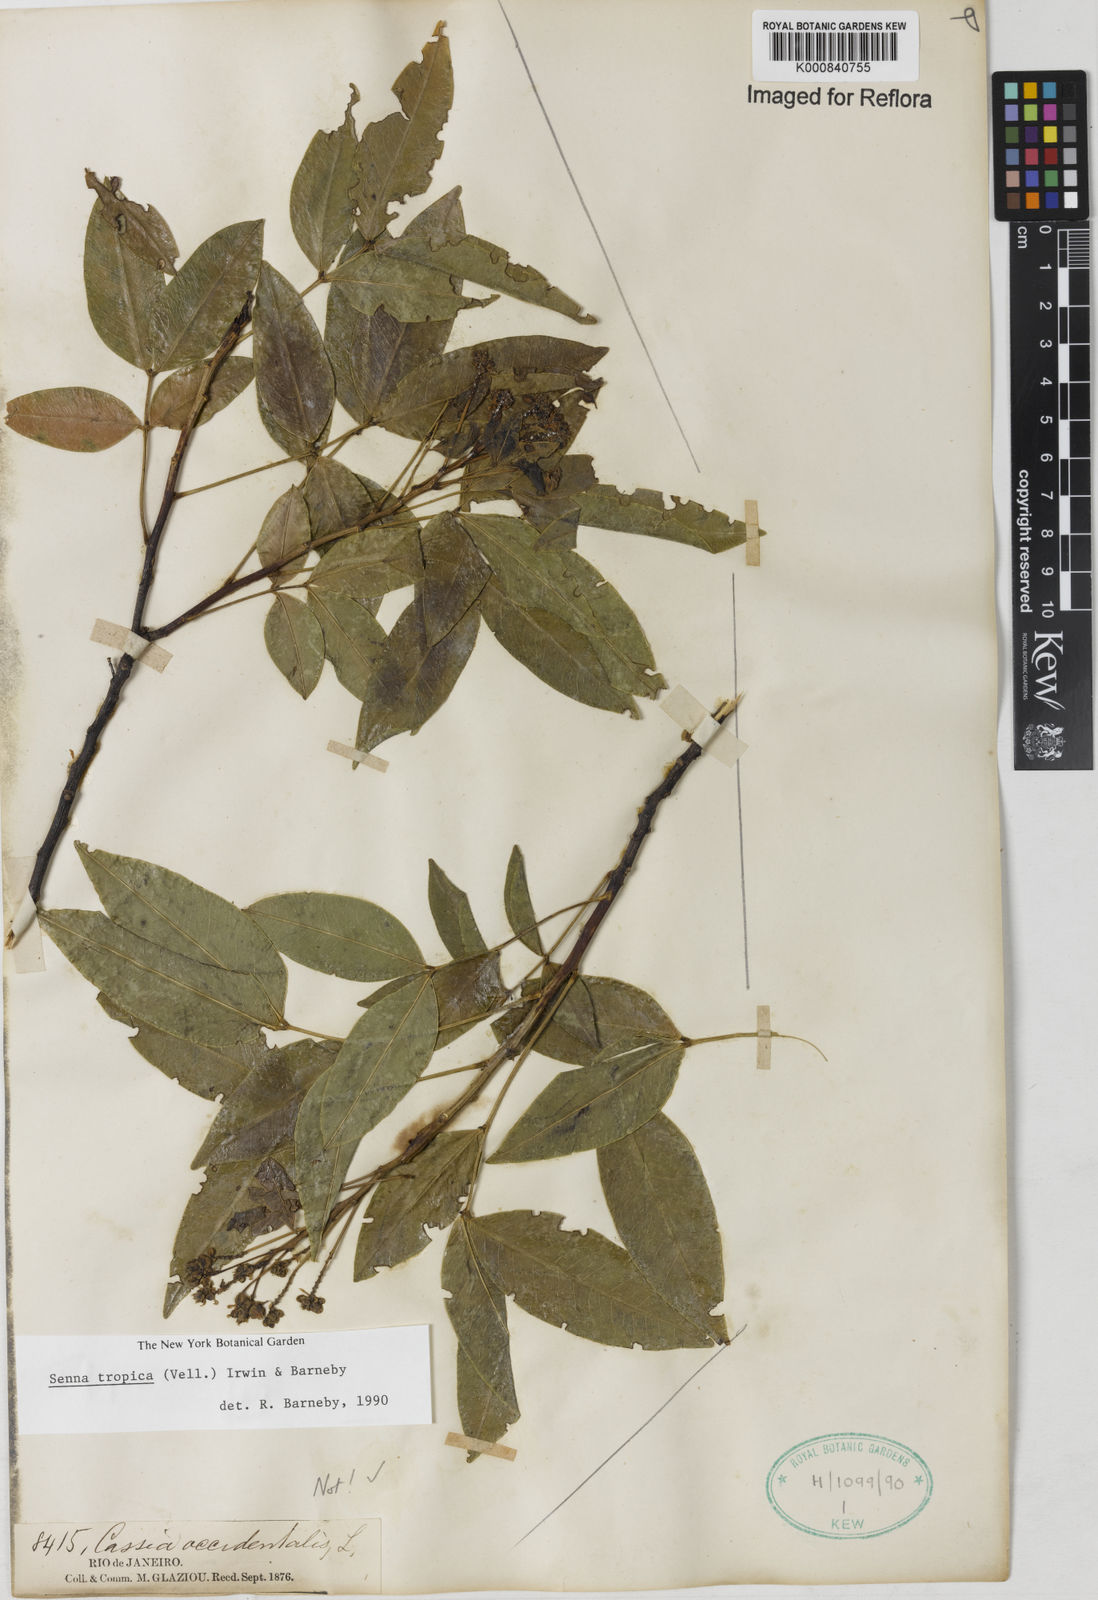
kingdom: Plantae
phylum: Tracheophyta
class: Magnoliopsida
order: Fabales
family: Fabaceae
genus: Senna
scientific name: Senna tropica
